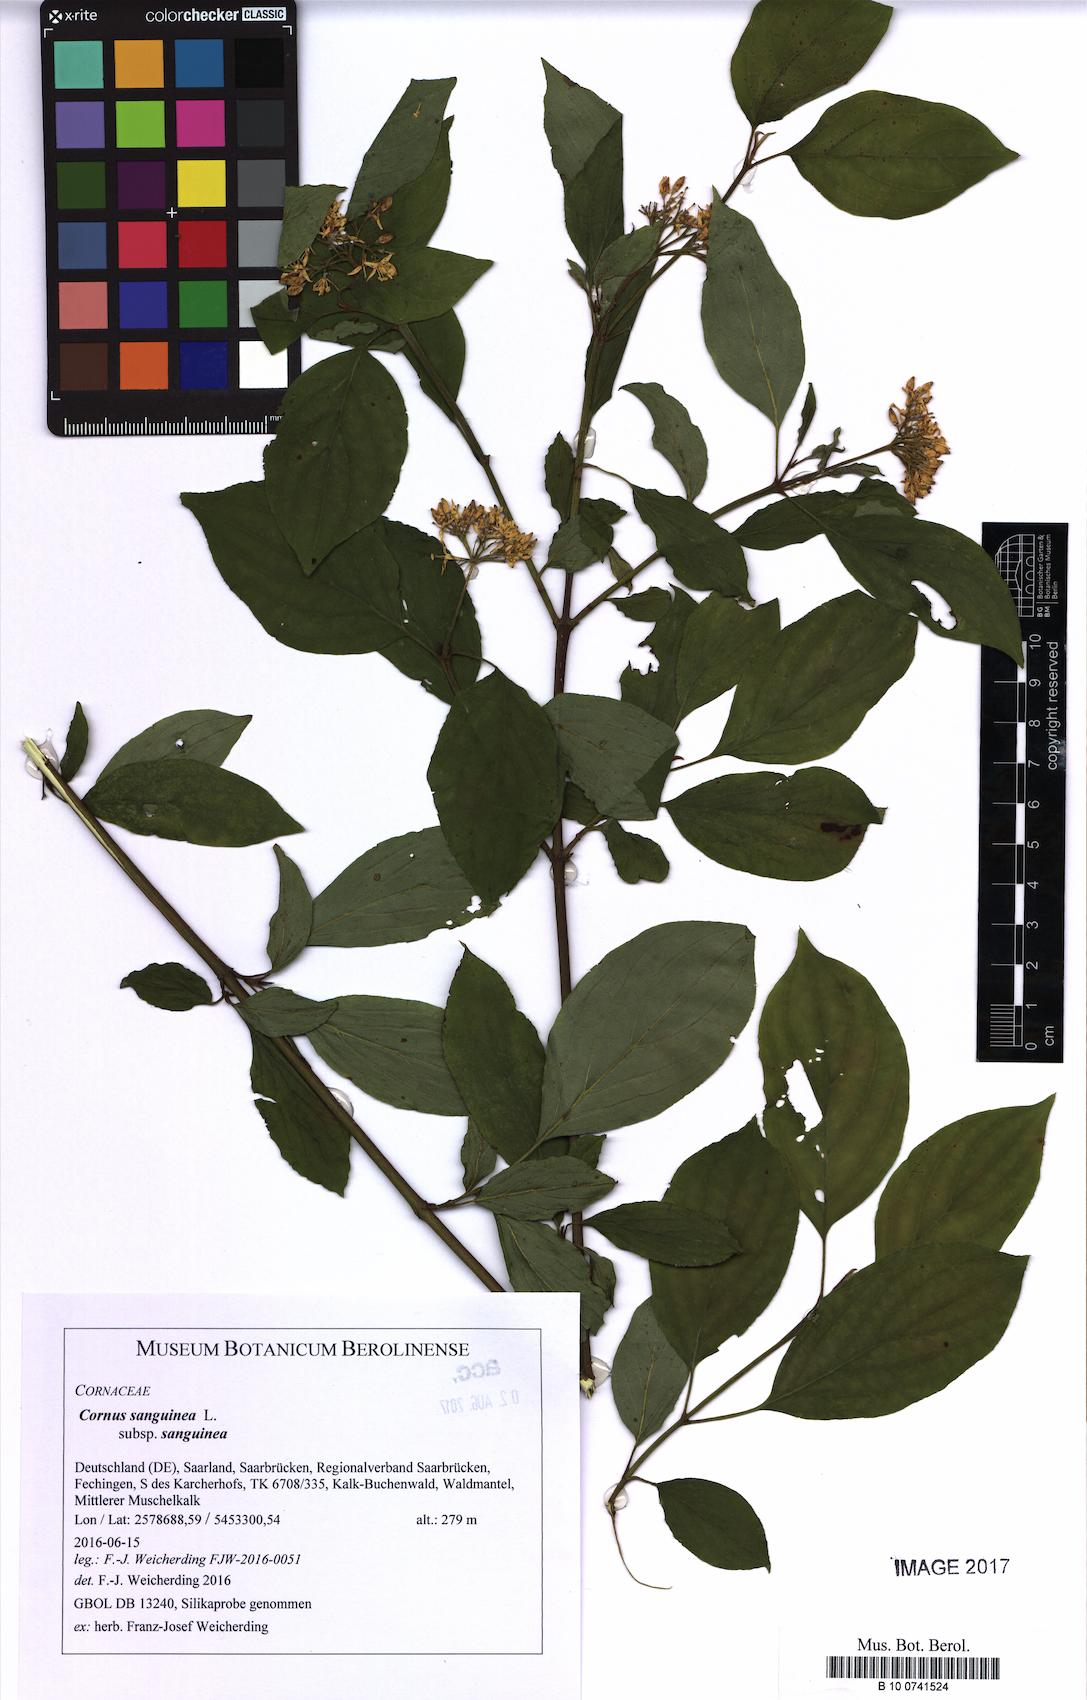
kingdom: Plantae
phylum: Tracheophyta
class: Magnoliopsida
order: Cornales
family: Cornaceae
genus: Cornus
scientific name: Cornus sanguinea
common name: Dogwood
